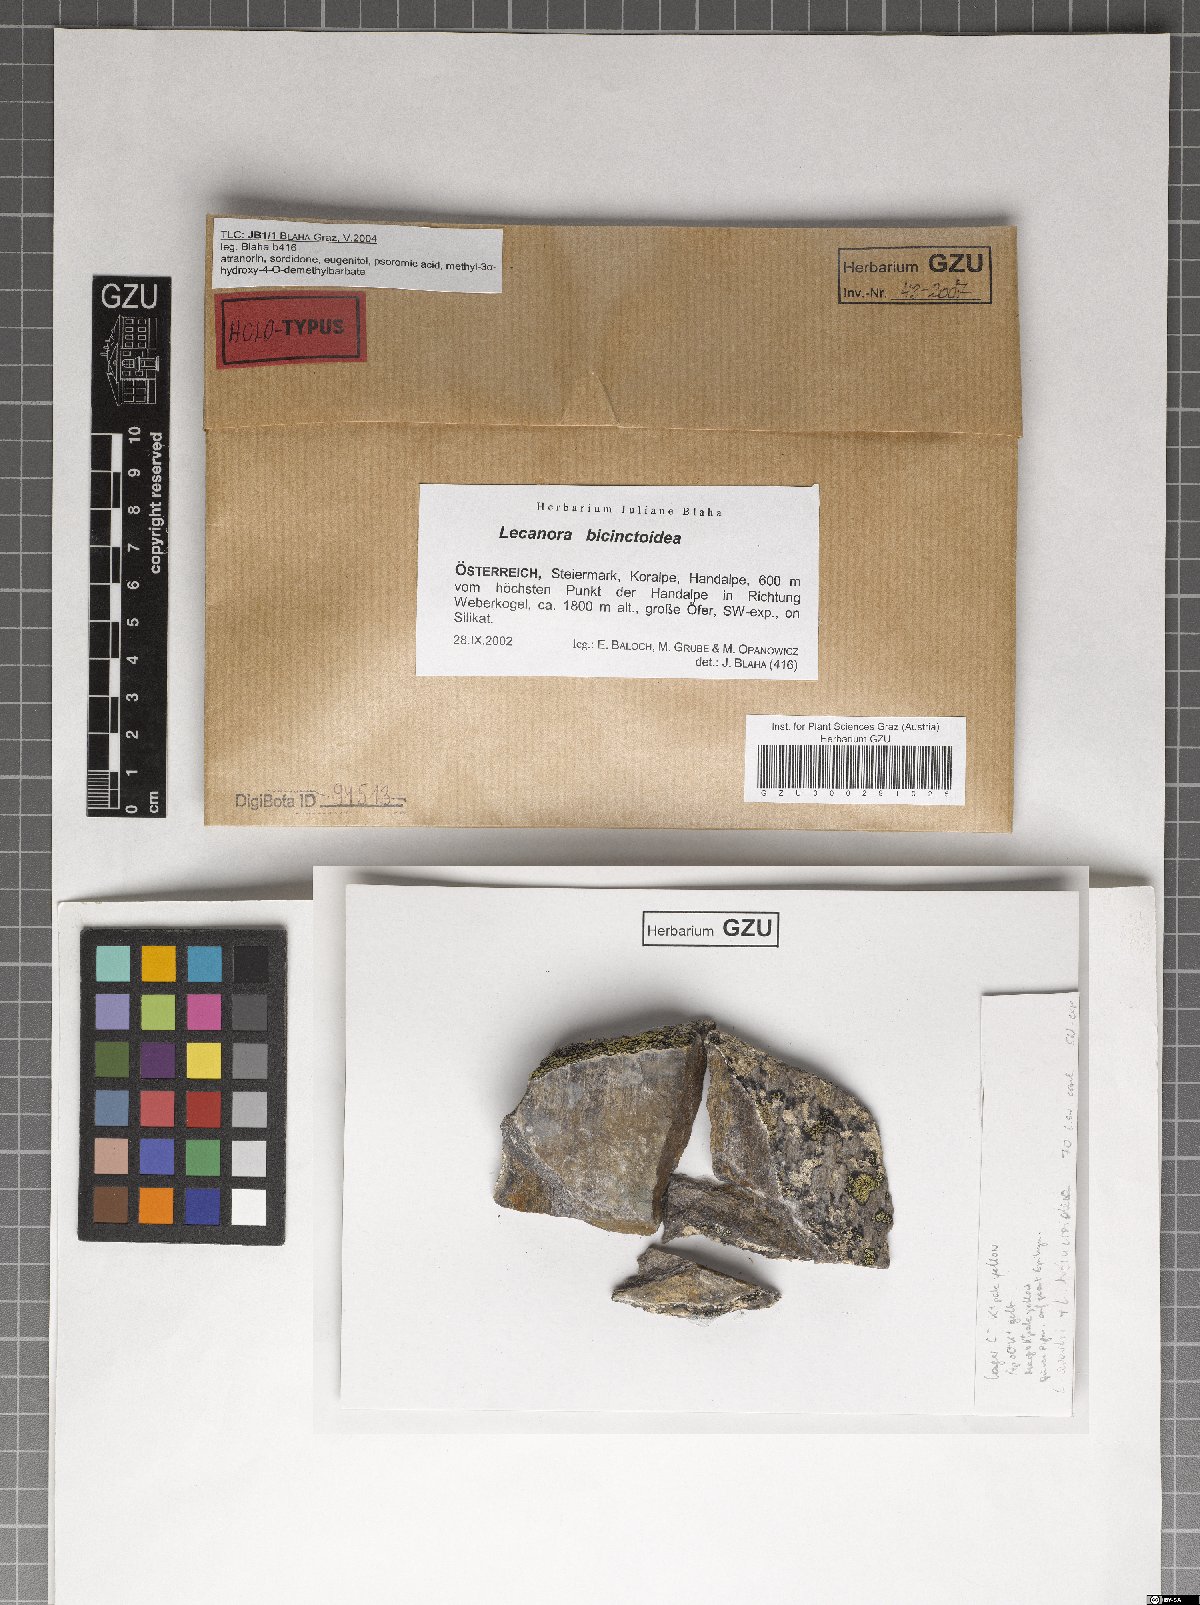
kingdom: Fungi
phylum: Ascomycota
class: Lecanoromycetes
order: Lecanorales
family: Lecanoraceae
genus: Lecanora
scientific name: Lecanora bicinctoidea
